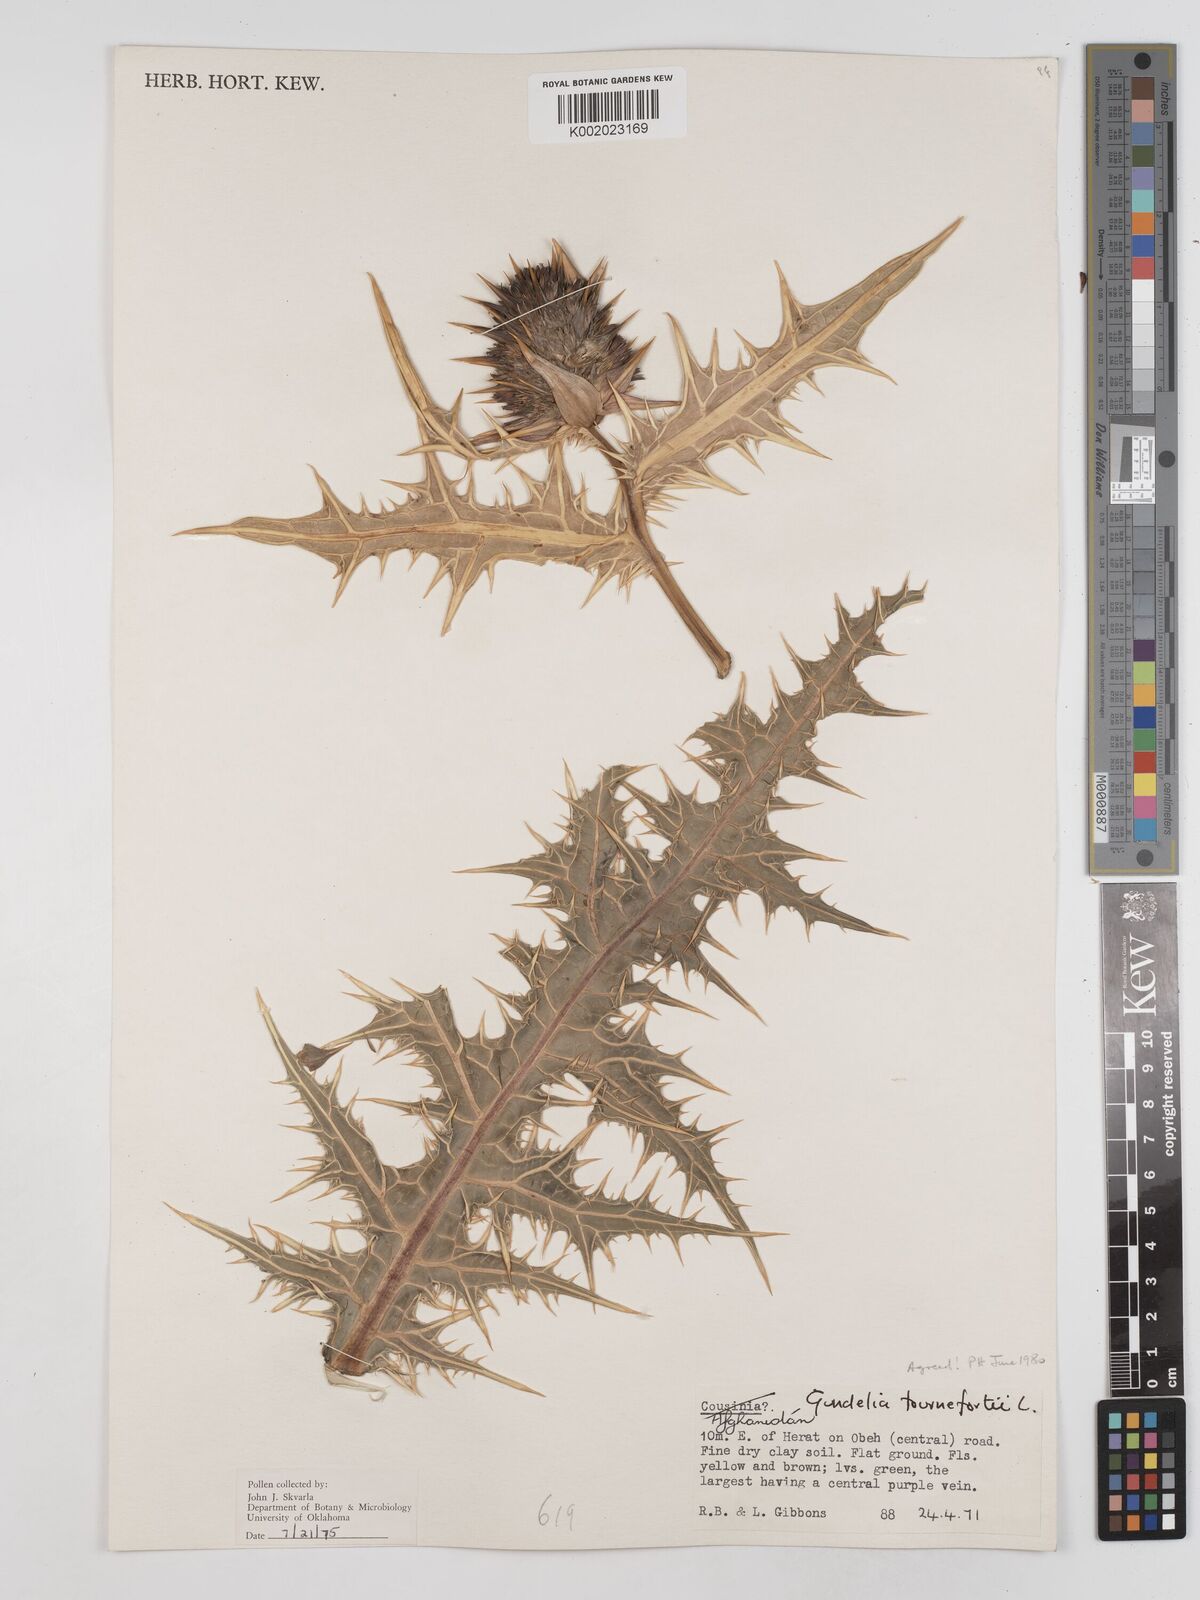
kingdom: Plantae
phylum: Tracheophyta
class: Magnoliopsida
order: Asterales
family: Asteraceae
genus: Gundelia
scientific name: Gundelia tournefortii
